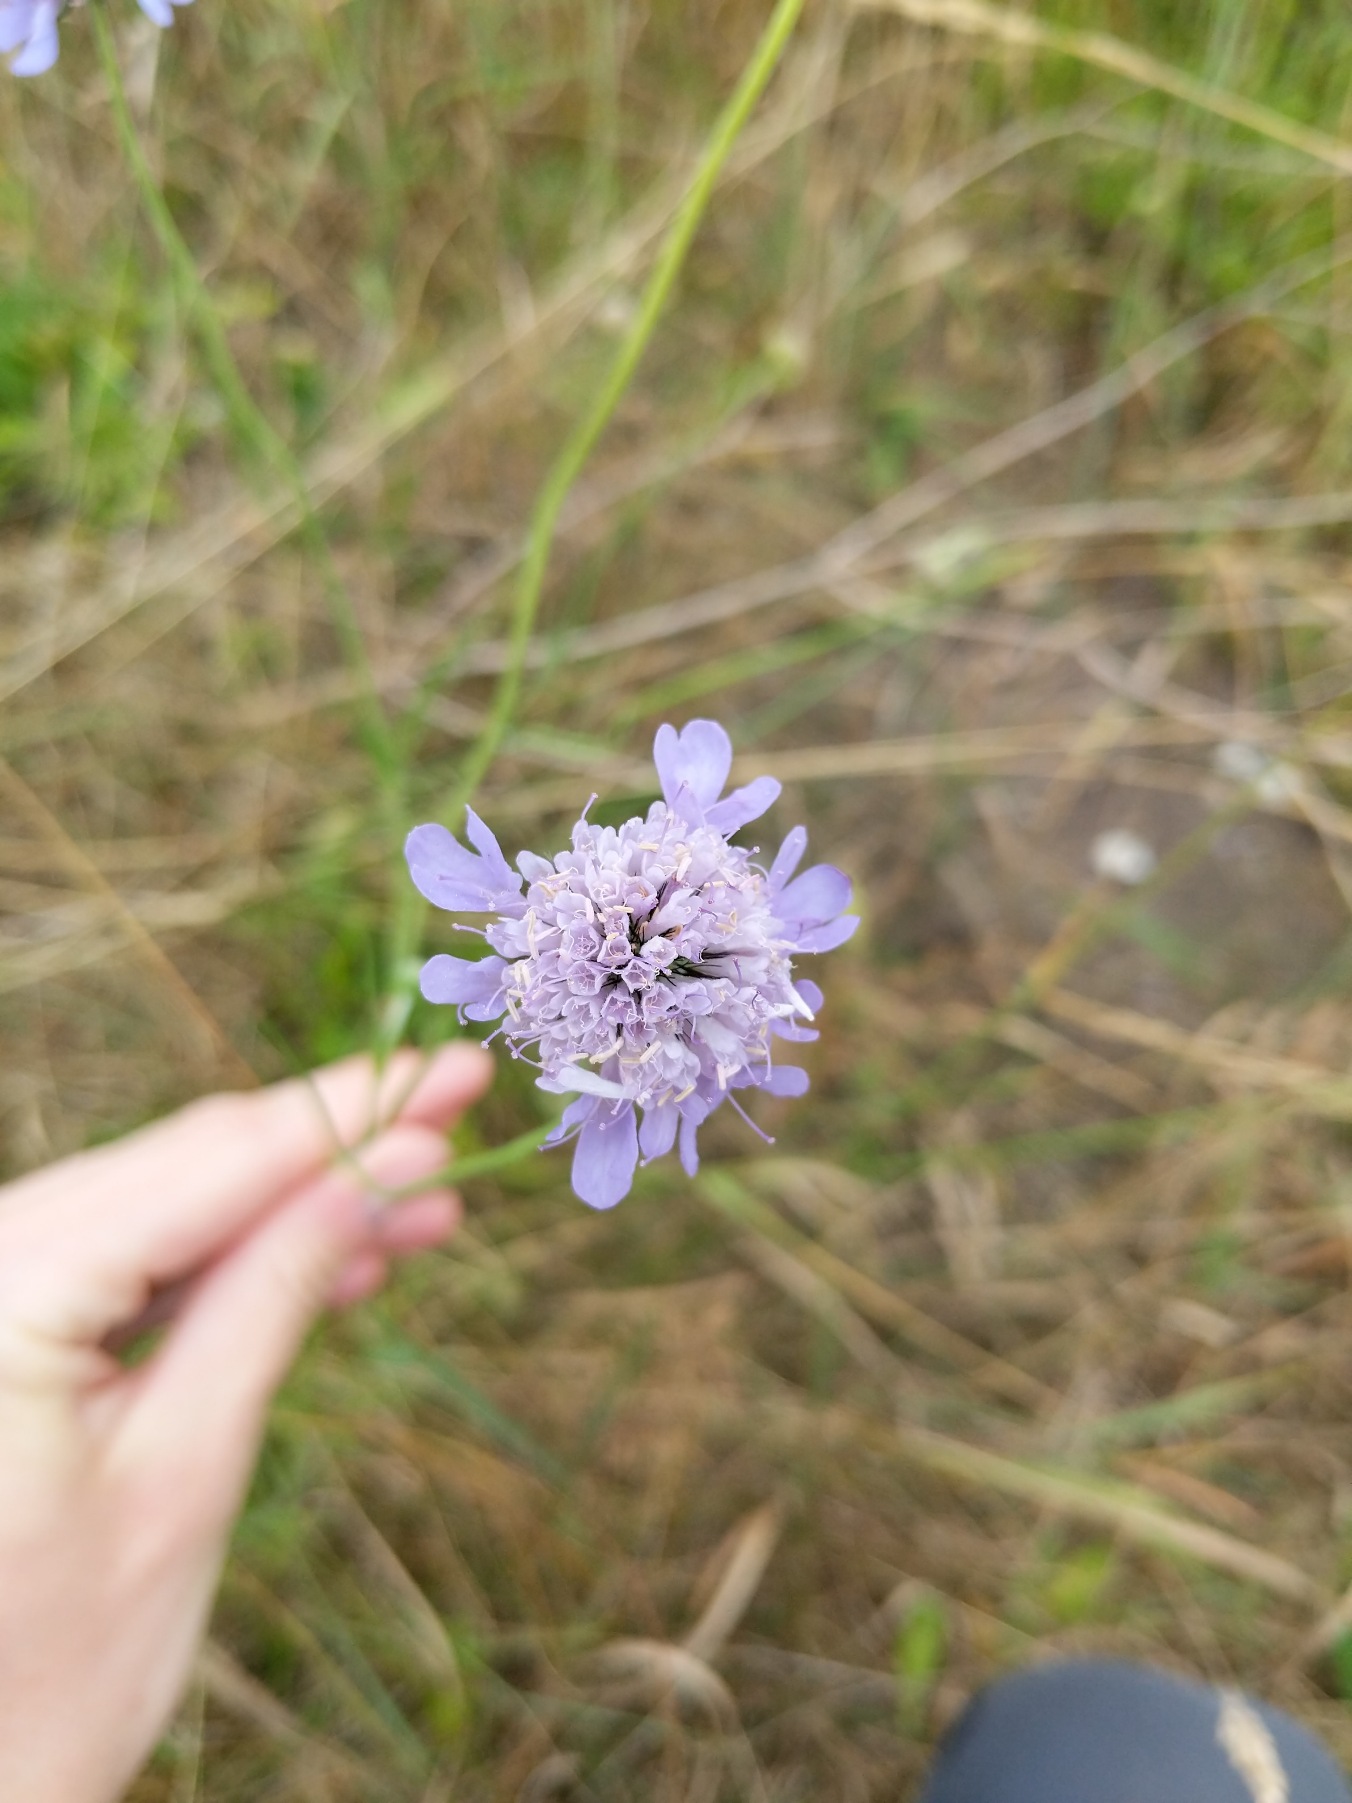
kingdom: Plantae
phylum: Tracheophyta
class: Magnoliopsida
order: Dipsacales
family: Caprifoliaceae
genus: Scabiosa
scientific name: Scabiosa columbaria
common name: Due-skabiose
